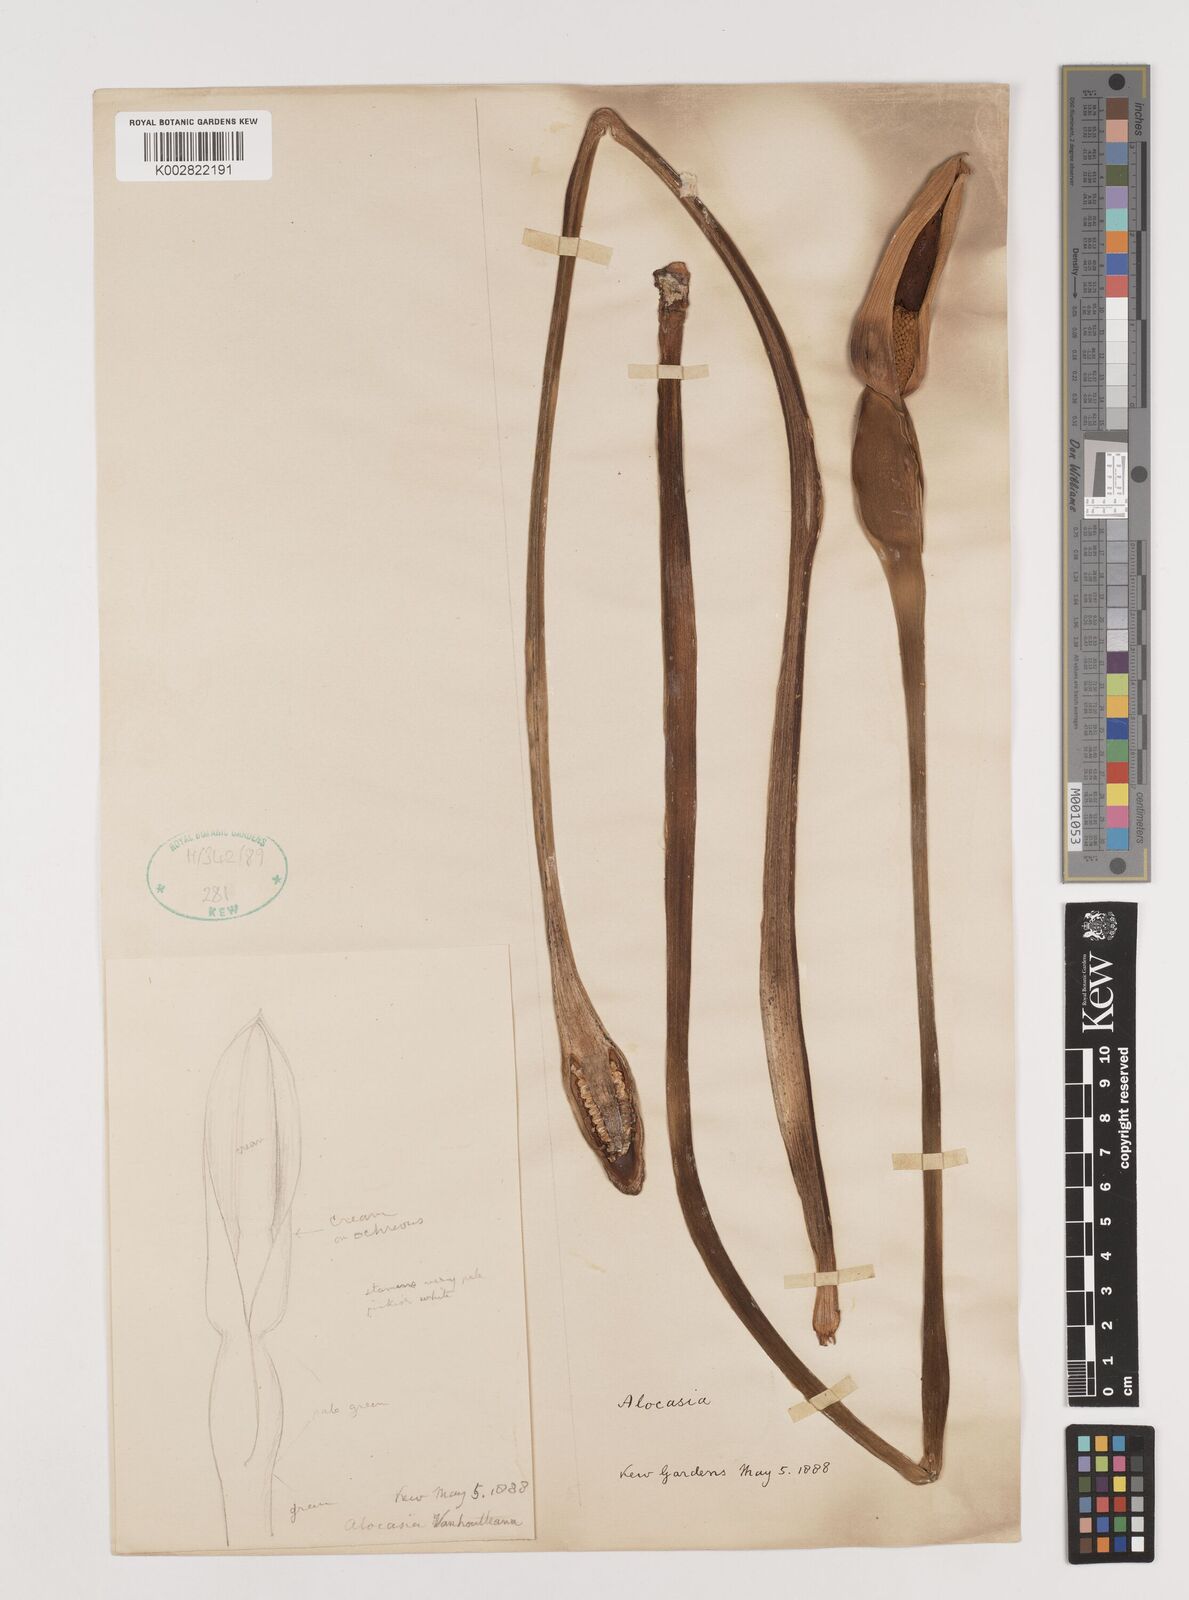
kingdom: Plantae
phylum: Tracheophyta
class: Liliopsida
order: Alismatales
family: Araceae
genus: Alocasia
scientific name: Alocasia macrorrhizos
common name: Giant taro
